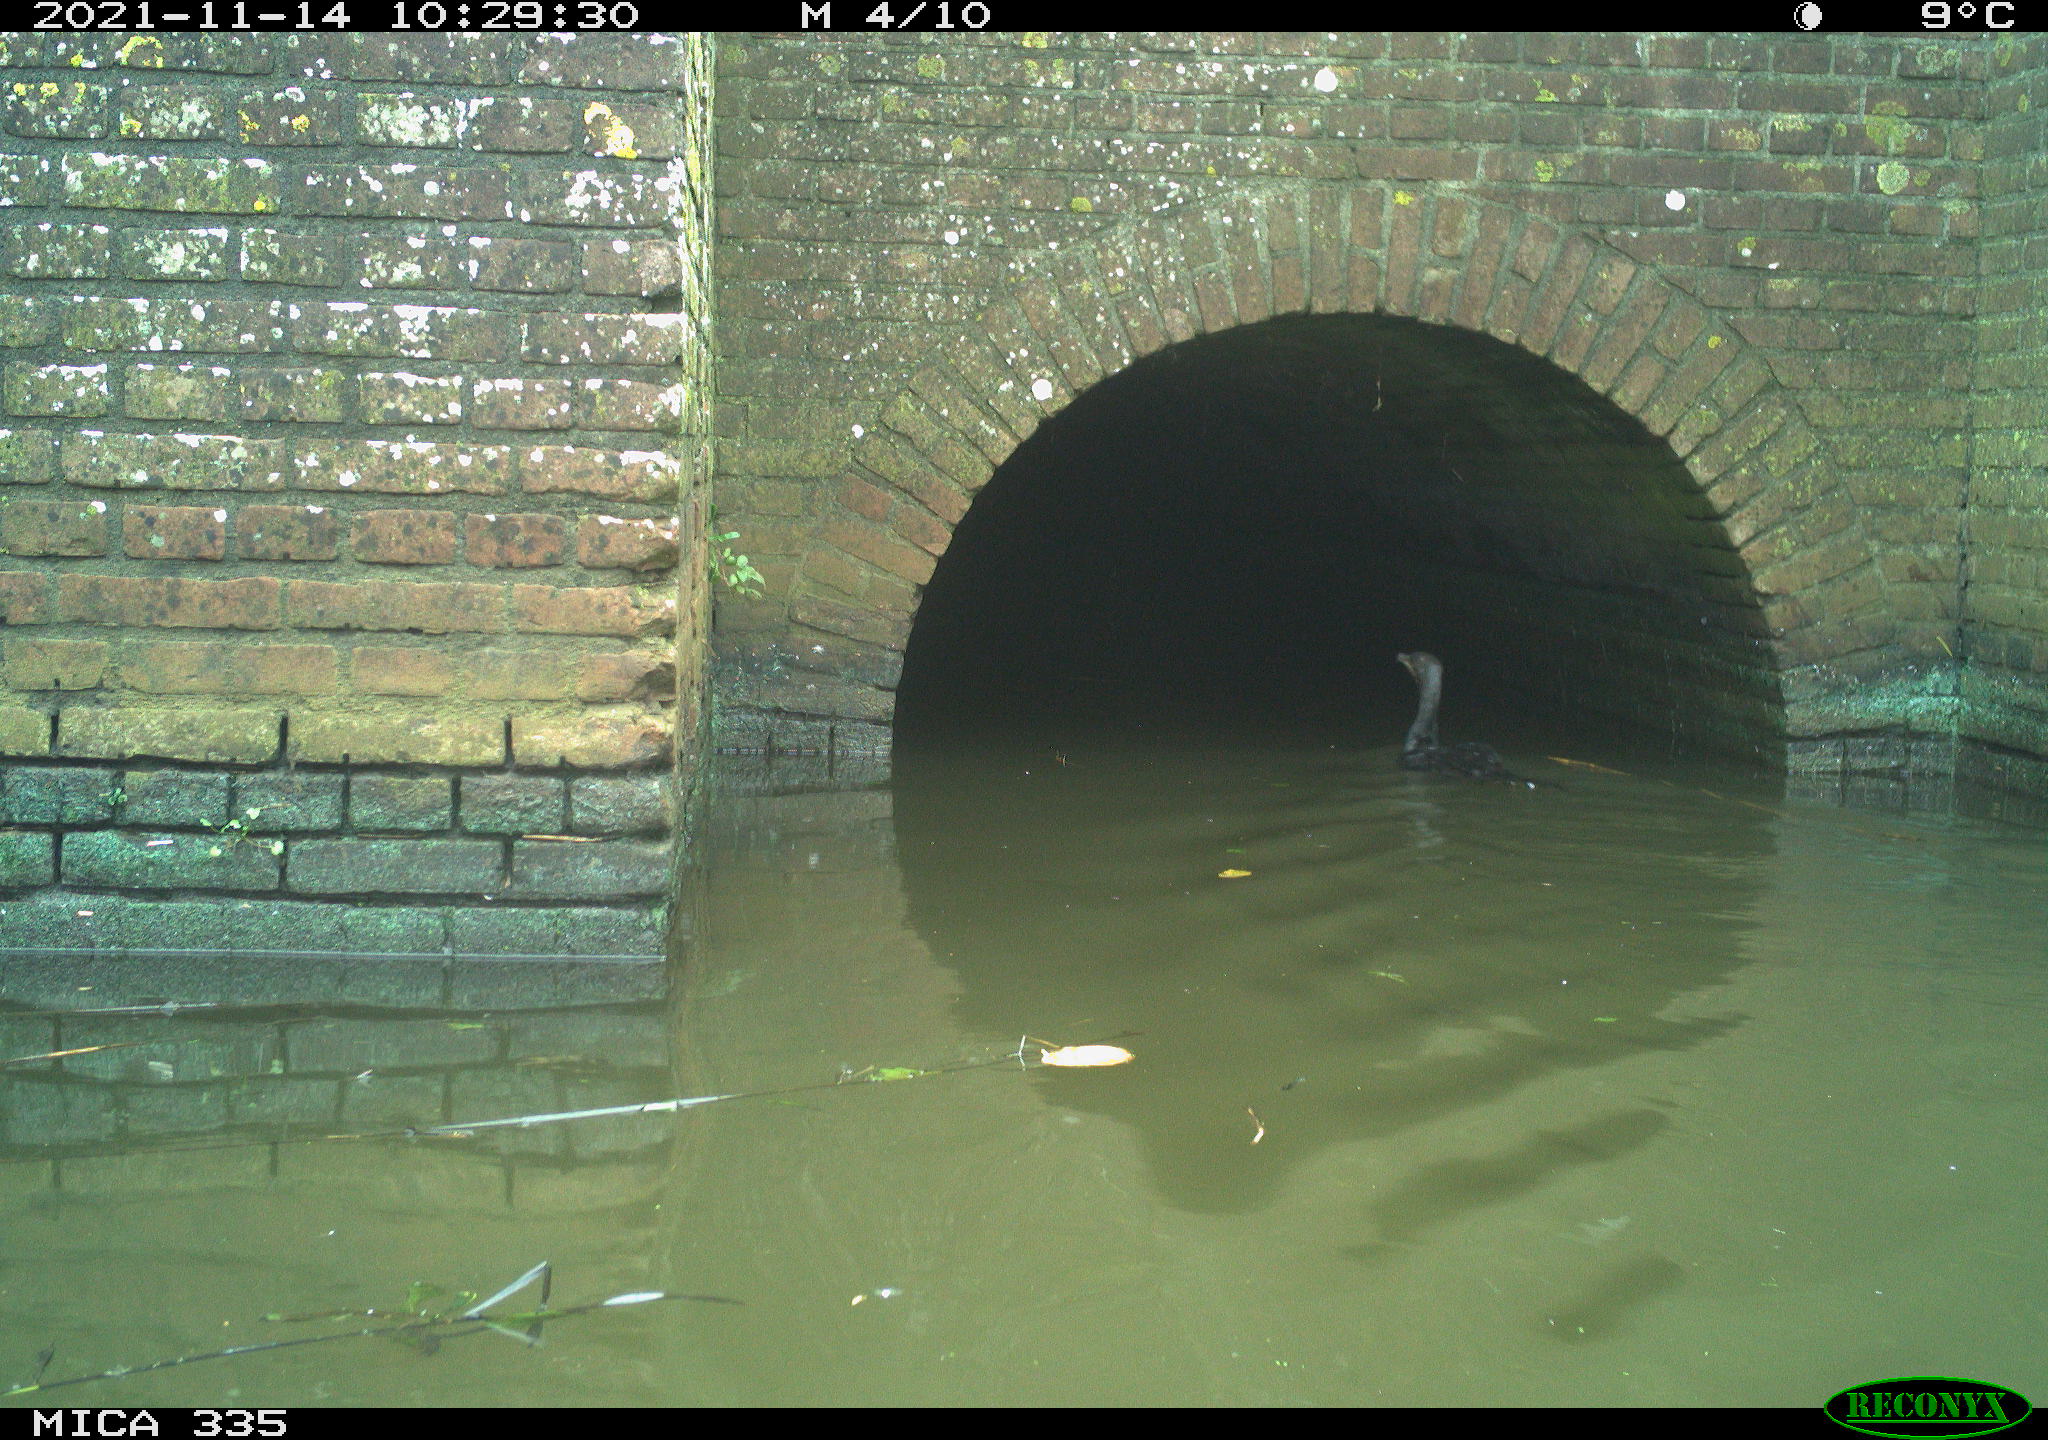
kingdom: Animalia
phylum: Chordata
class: Aves
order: Suliformes
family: Phalacrocoracidae
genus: Phalacrocorax
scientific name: Phalacrocorax carbo
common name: Great cormorant
